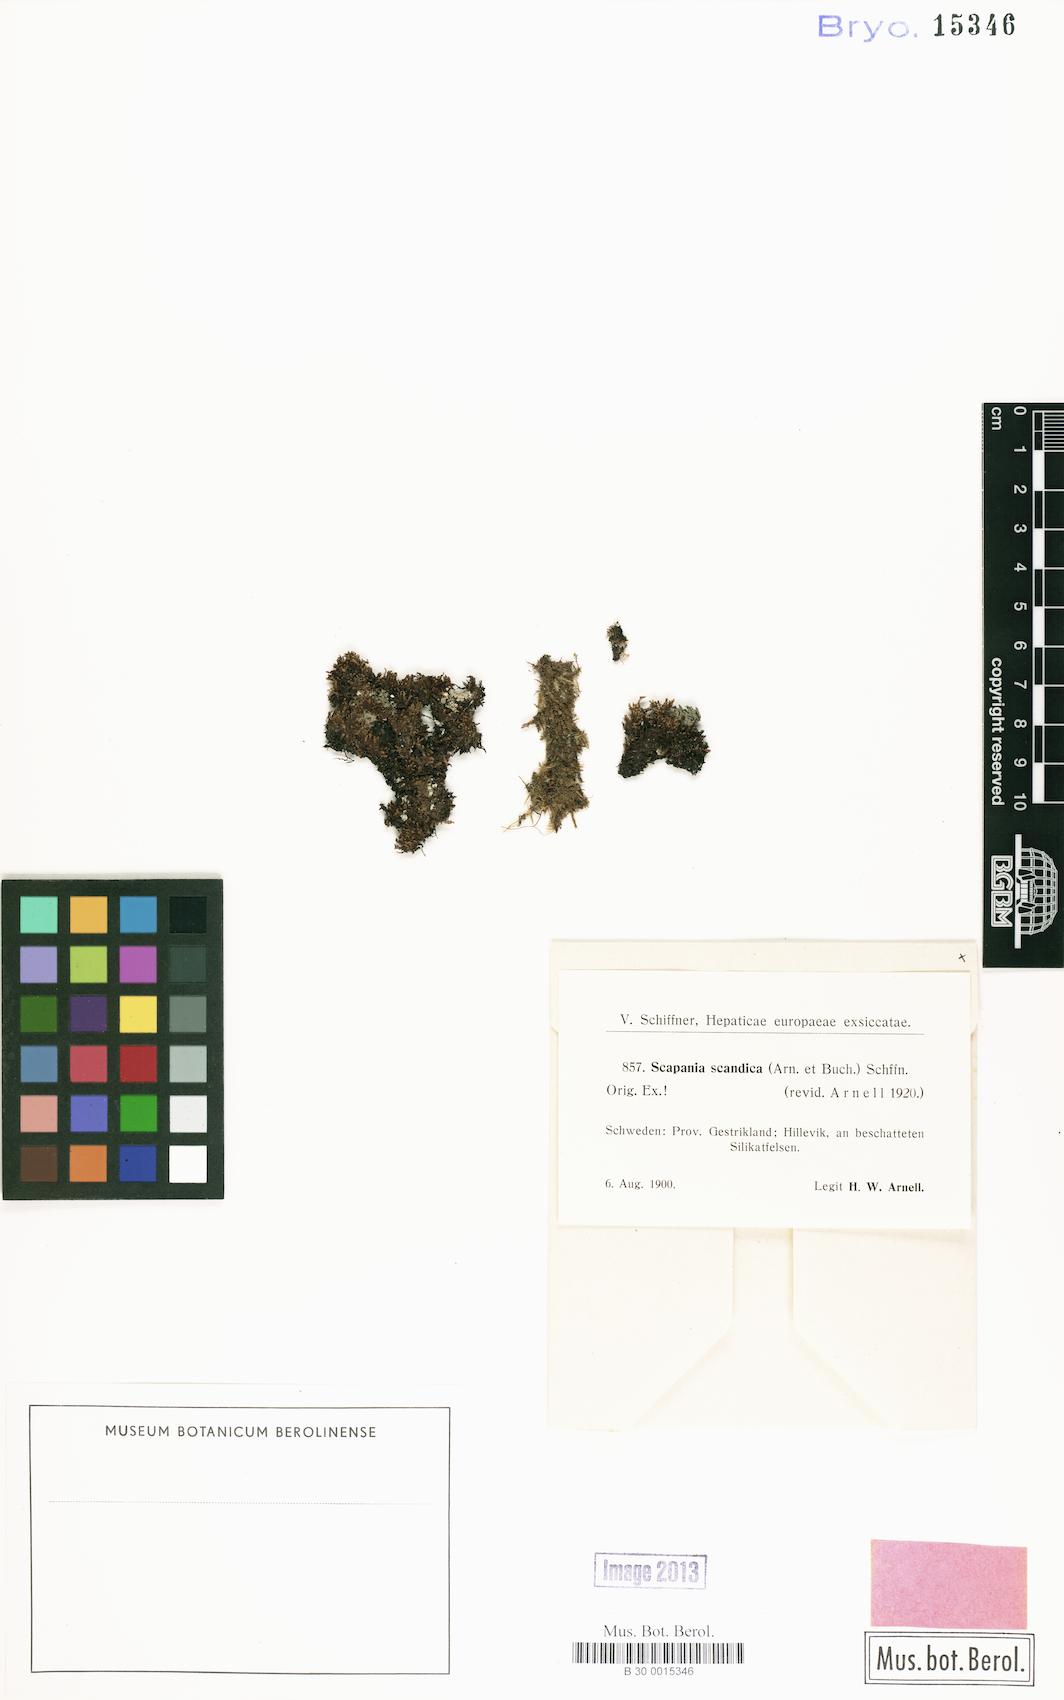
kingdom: Plantae
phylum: Marchantiophyta
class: Jungermanniopsida
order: Jungermanniales
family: Scapaniaceae
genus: Scapania
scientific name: Scapania scandica
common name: Norwegian earwort
